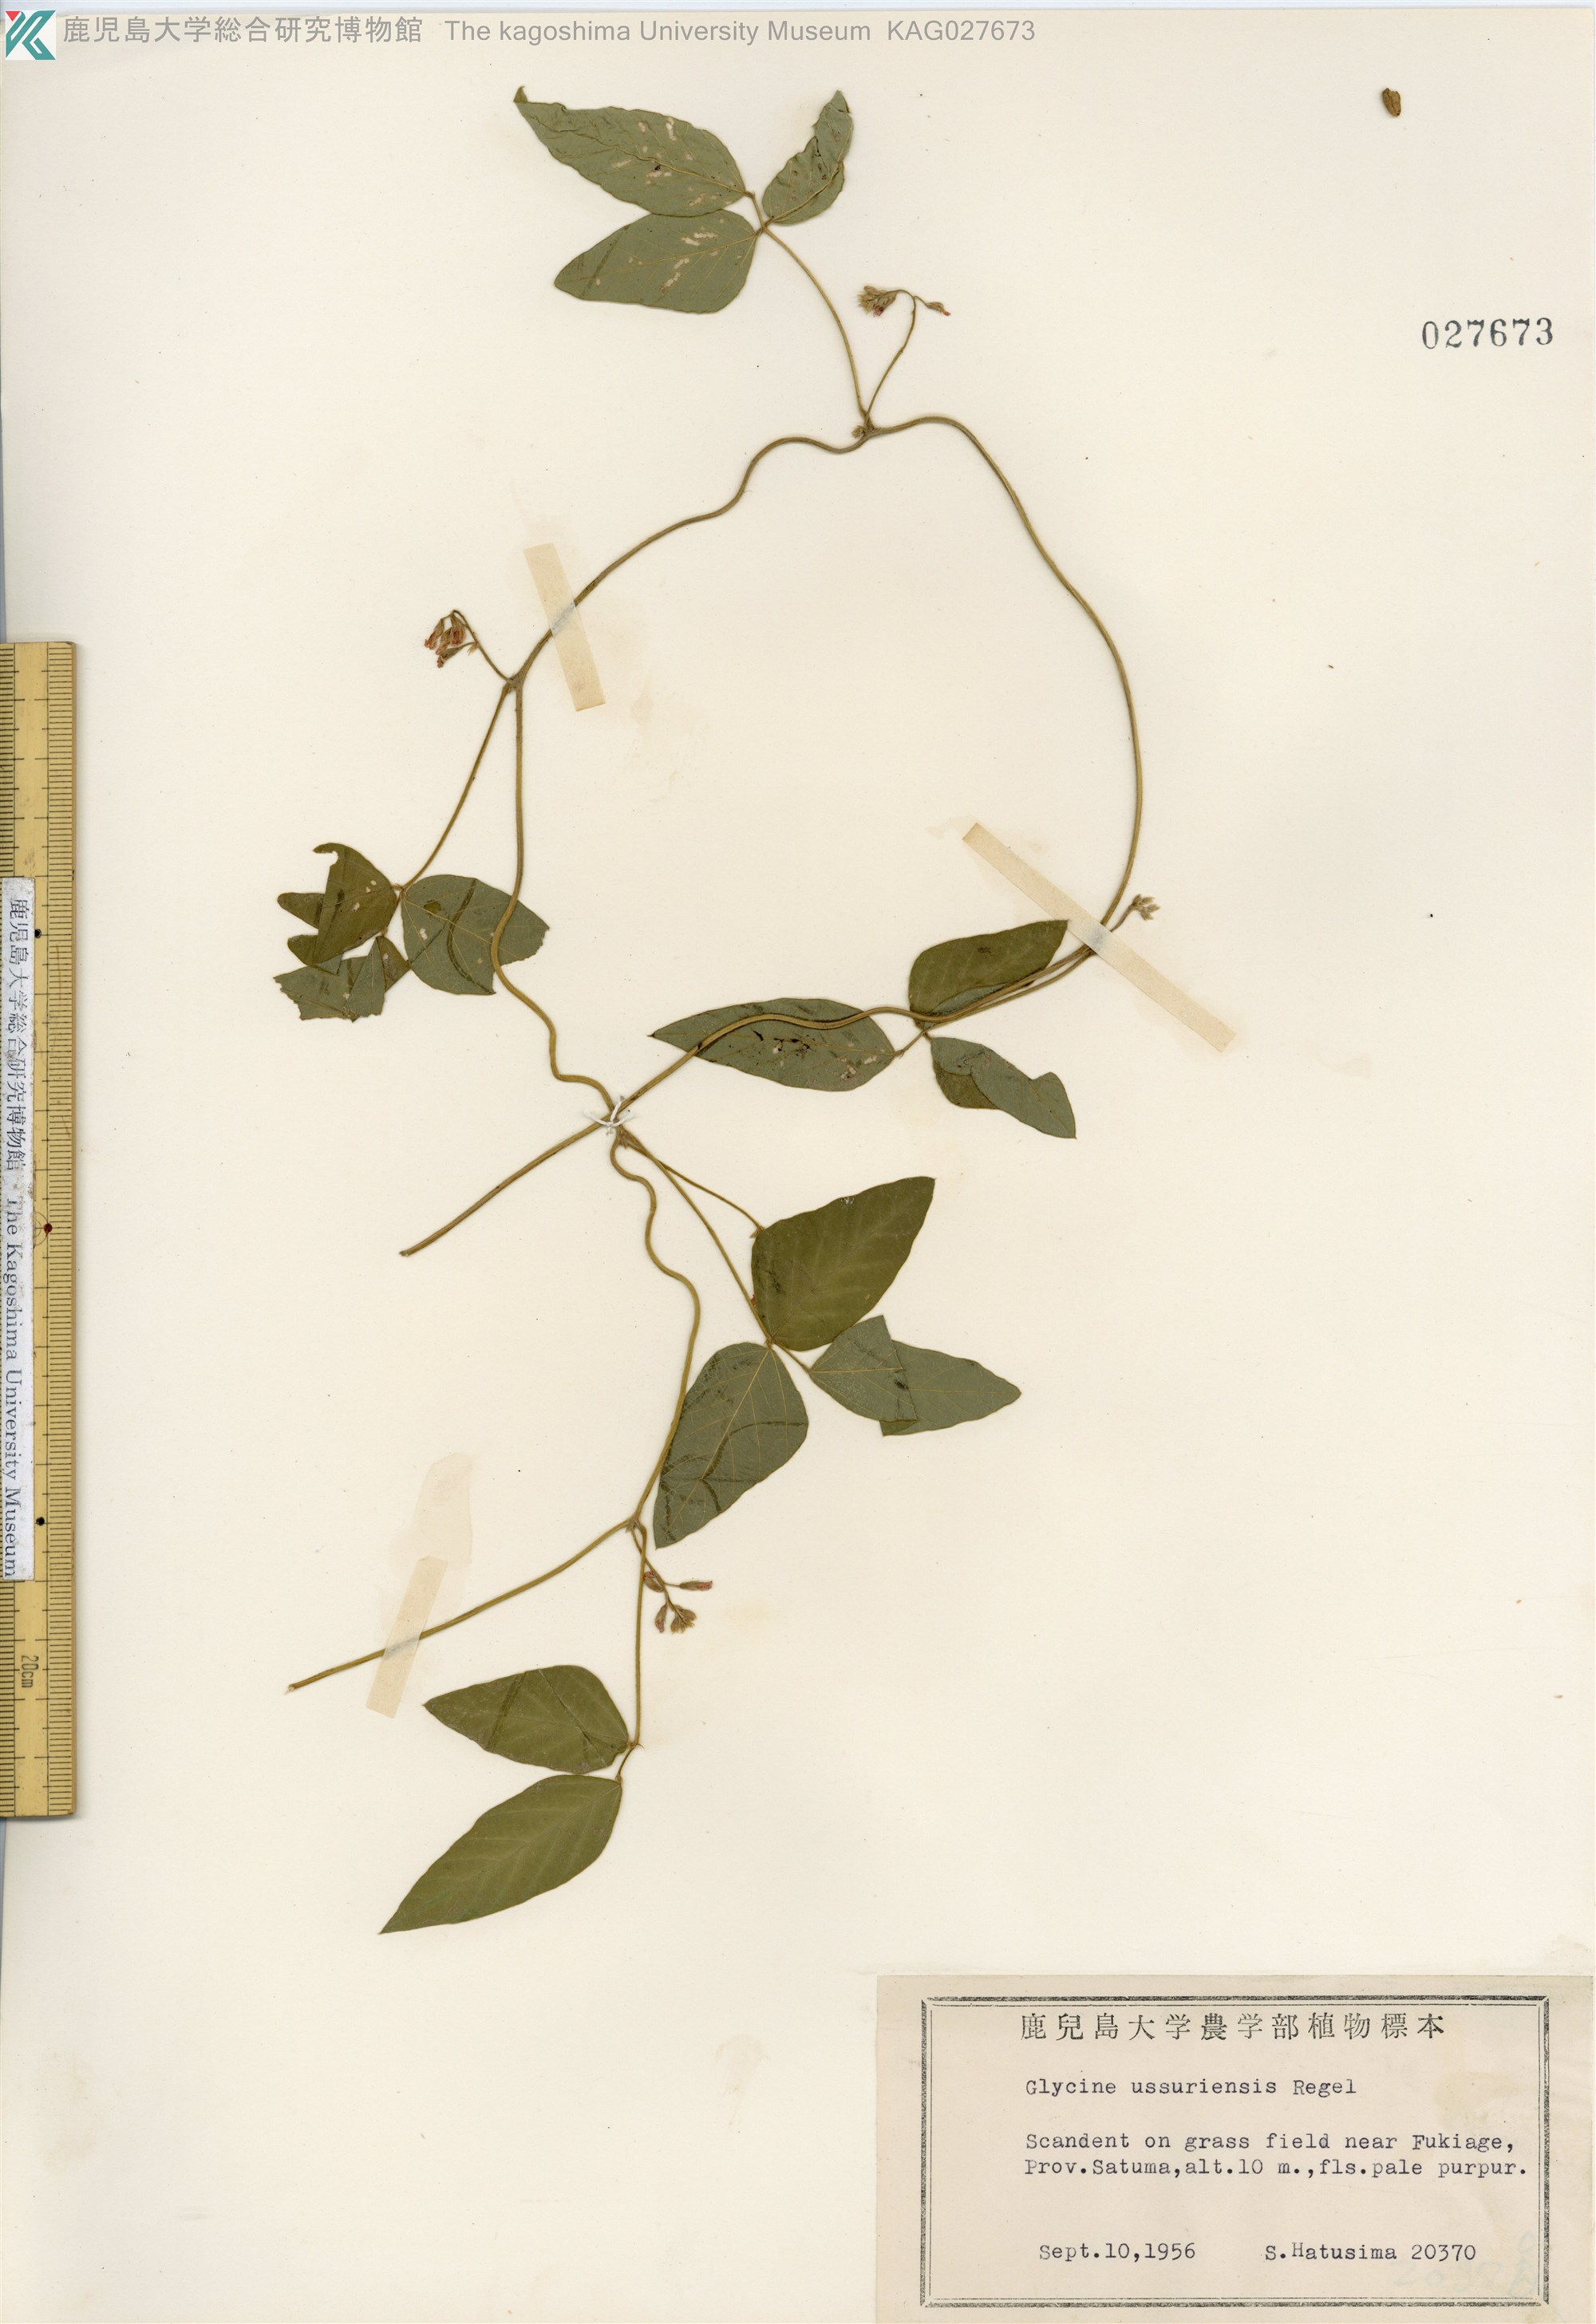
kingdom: Plantae
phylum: Tracheophyta
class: Magnoliopsida
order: Fabales
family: Fabaceae
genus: Glycine
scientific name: Glycine max
